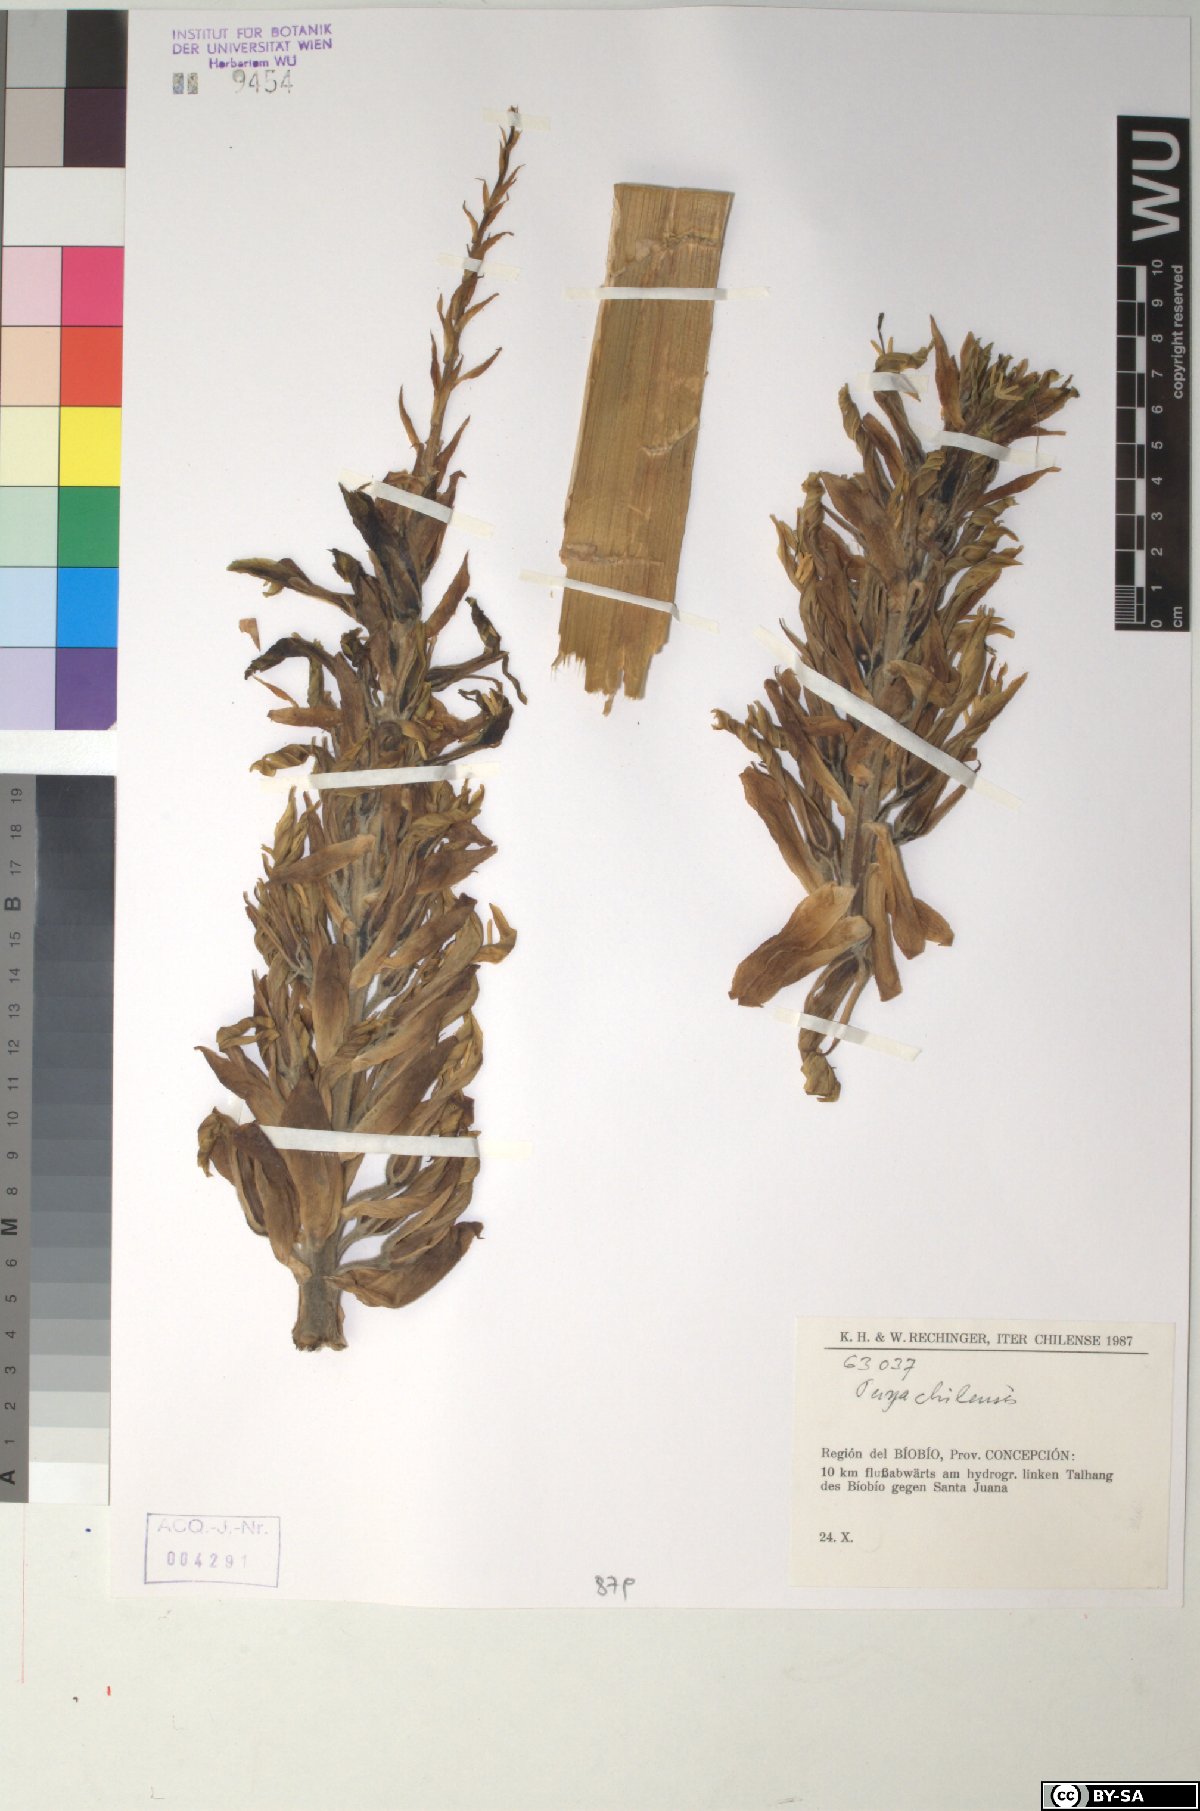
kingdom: Plantae
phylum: Tracheophyta
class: Liliopsida
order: Poales
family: Bromeliaceae
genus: Puya
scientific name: Puya chilensis
